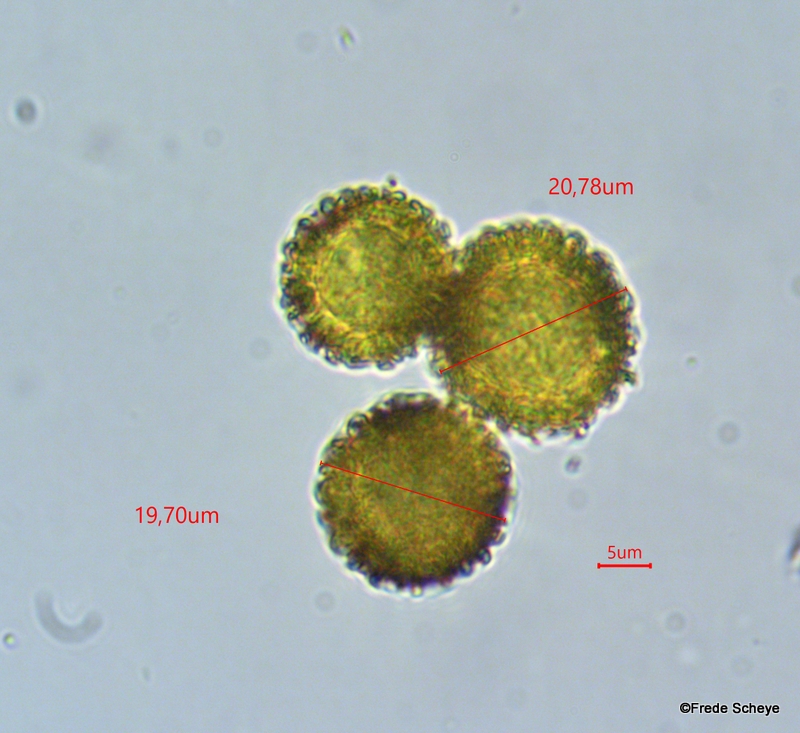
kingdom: Fungi
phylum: Ascomycota
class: Sordariomycetes
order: Hypocreales
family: Hypocreaceae
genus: Hypomyces
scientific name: Hypomyces chrysospermus
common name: gulskimmel-snylteskorpe
